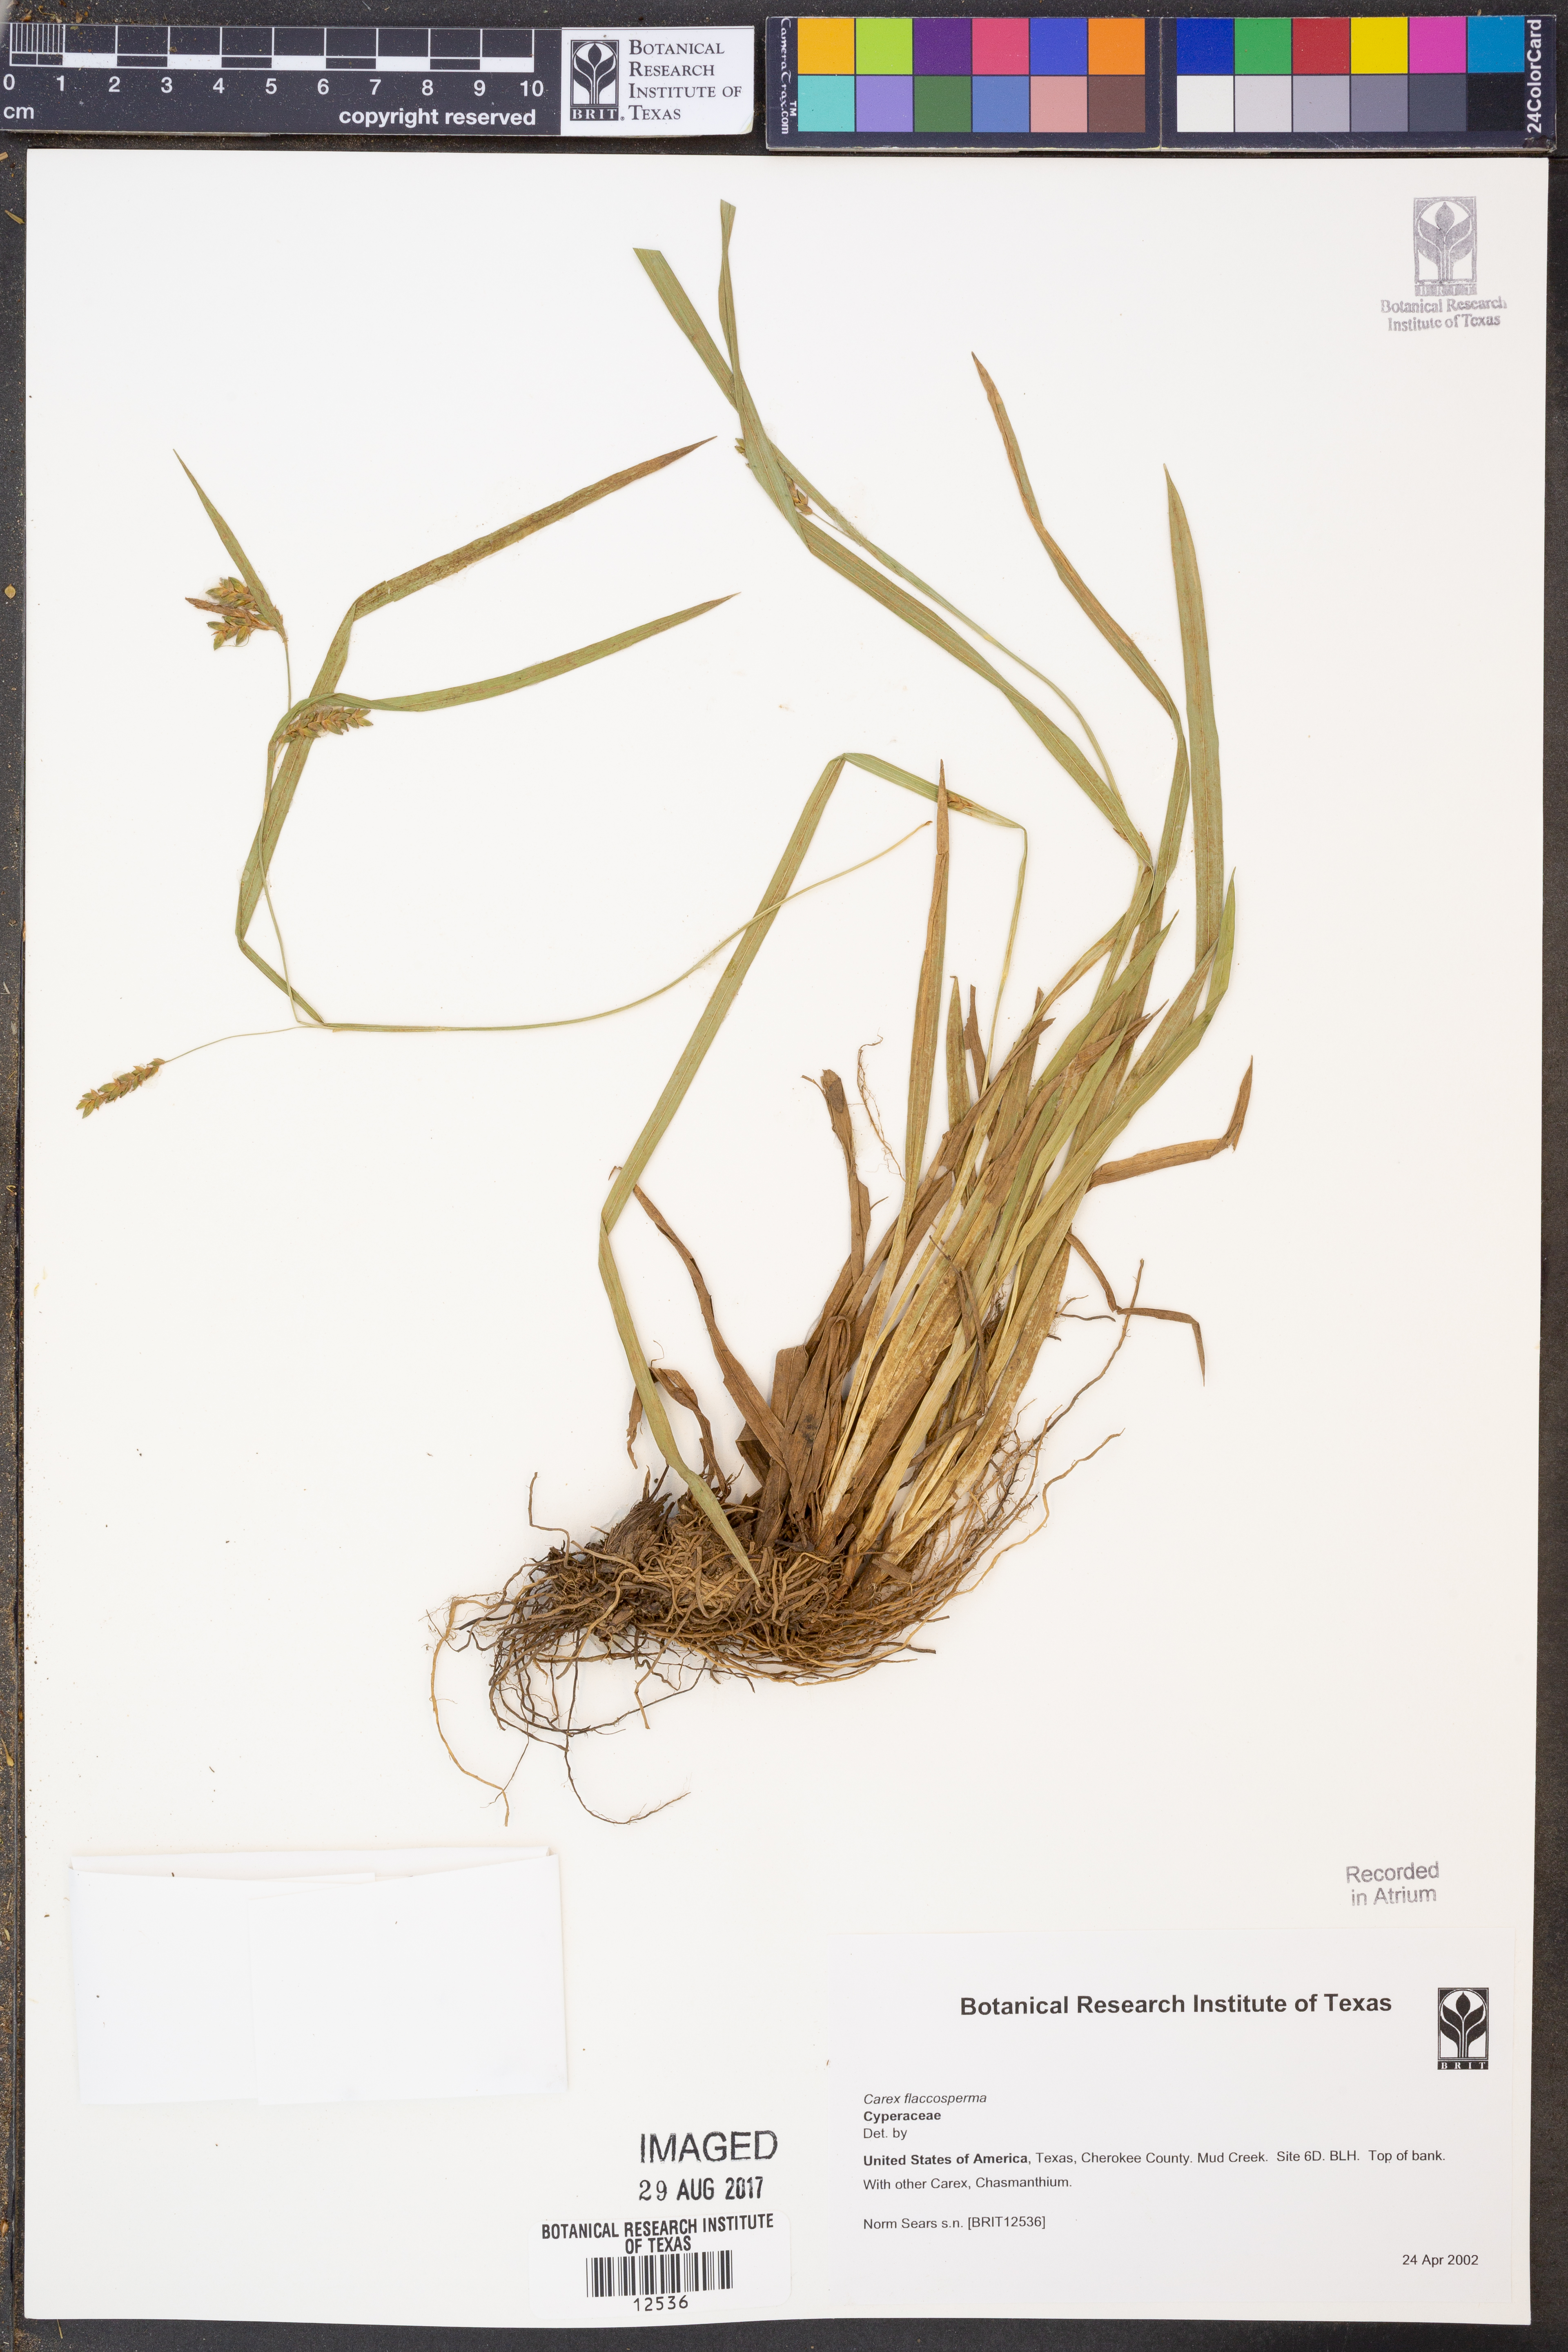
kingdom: Plantae
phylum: Tracheophyta
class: Liliopsida
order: Poales
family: Cyperaceae
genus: Carex
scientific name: Carex flaccosperma
